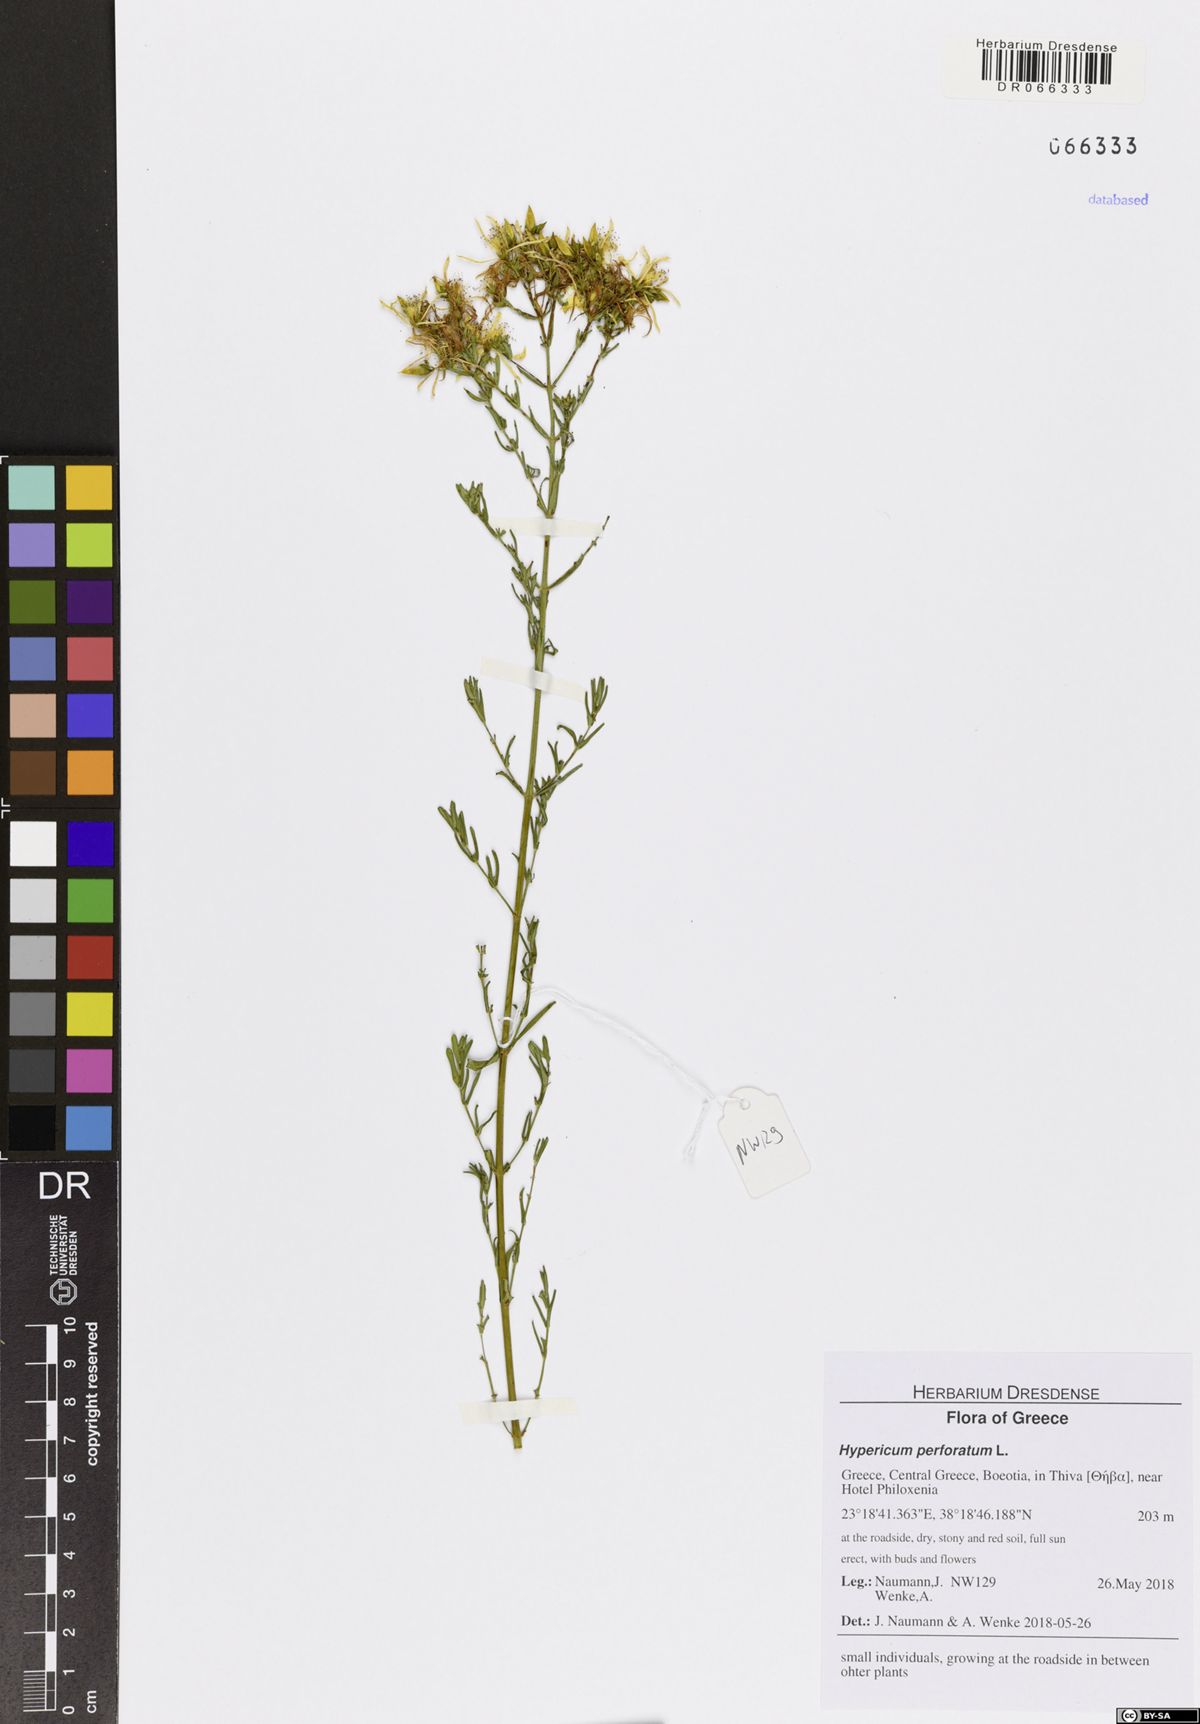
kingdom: Plantae
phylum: Tracheophyta
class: Magnoliopsida
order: Malpighiales
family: Hypericaceae
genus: Hypericum
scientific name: Hypericum perforatum
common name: Common st. johnswort
